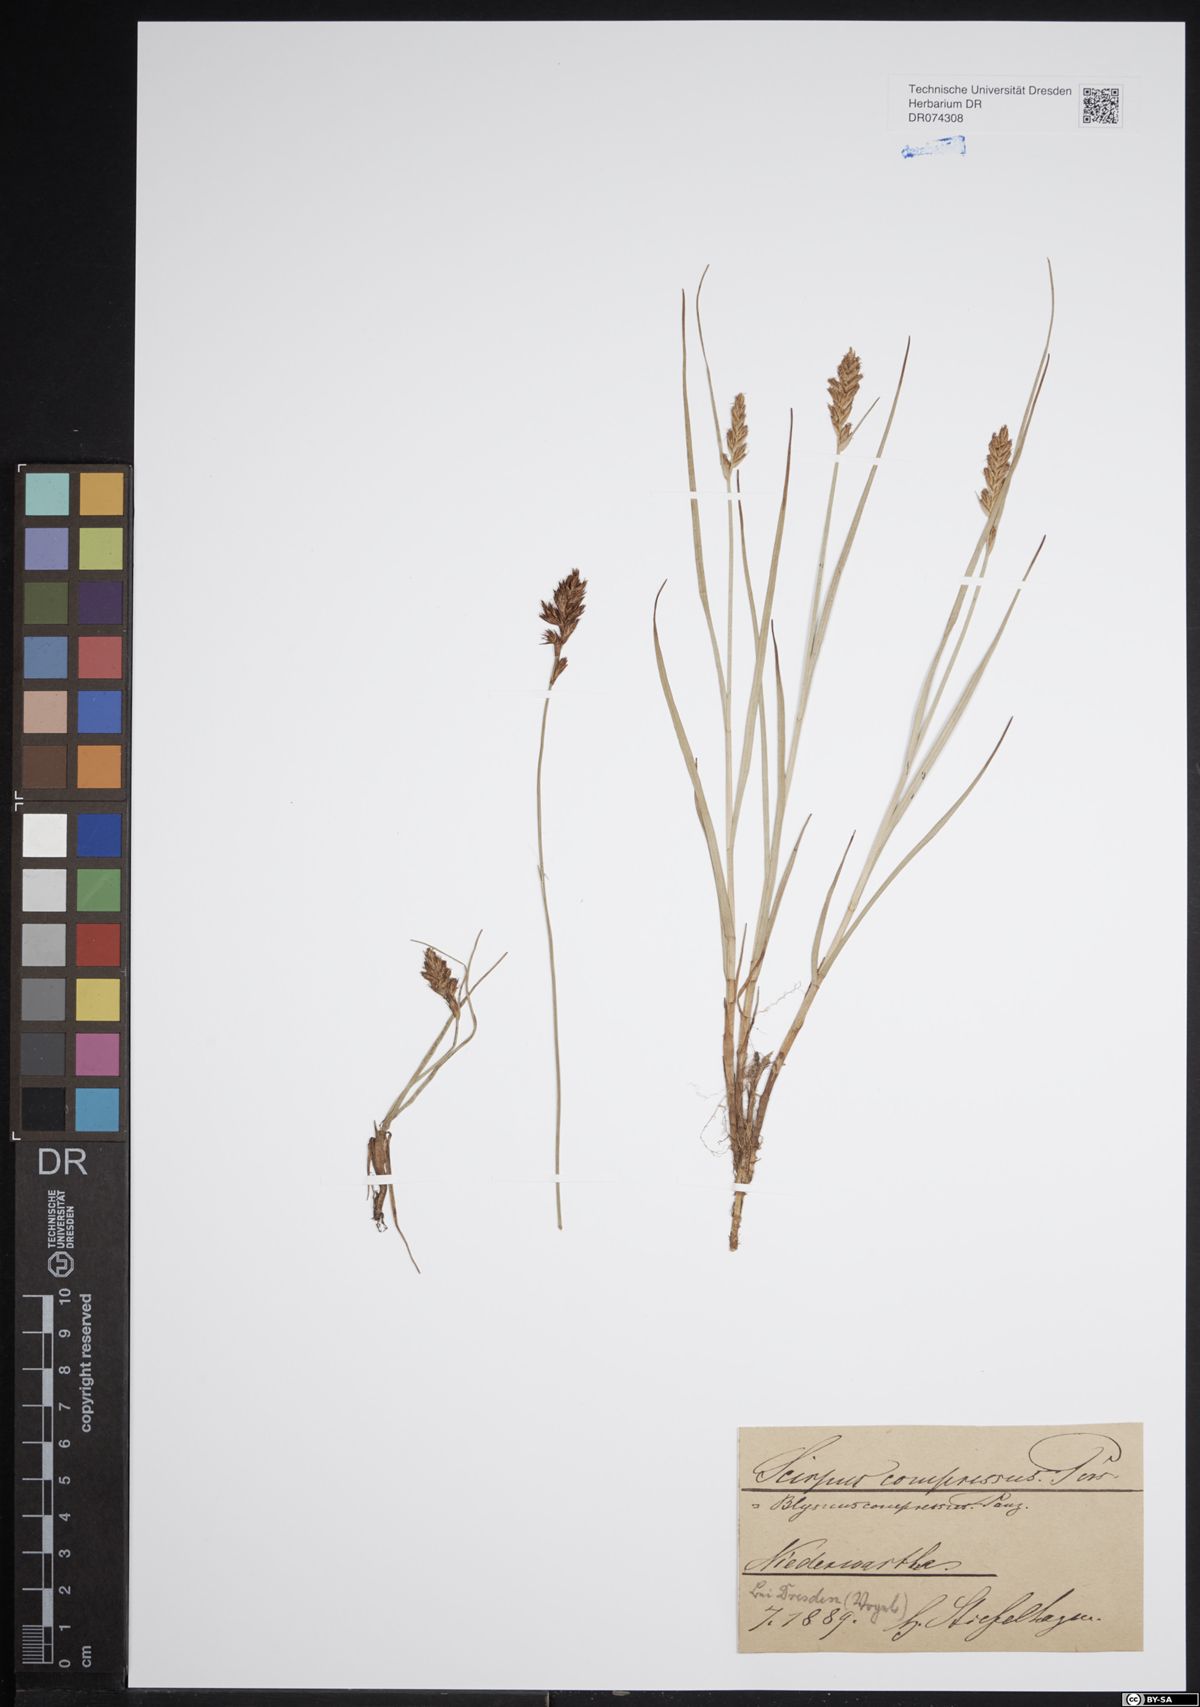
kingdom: Plantae
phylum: Tracheophyta
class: Liliopsida
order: Poales
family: Cyperaceae
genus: Blysmus
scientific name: Blysmus compressus
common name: Flat-sedge
